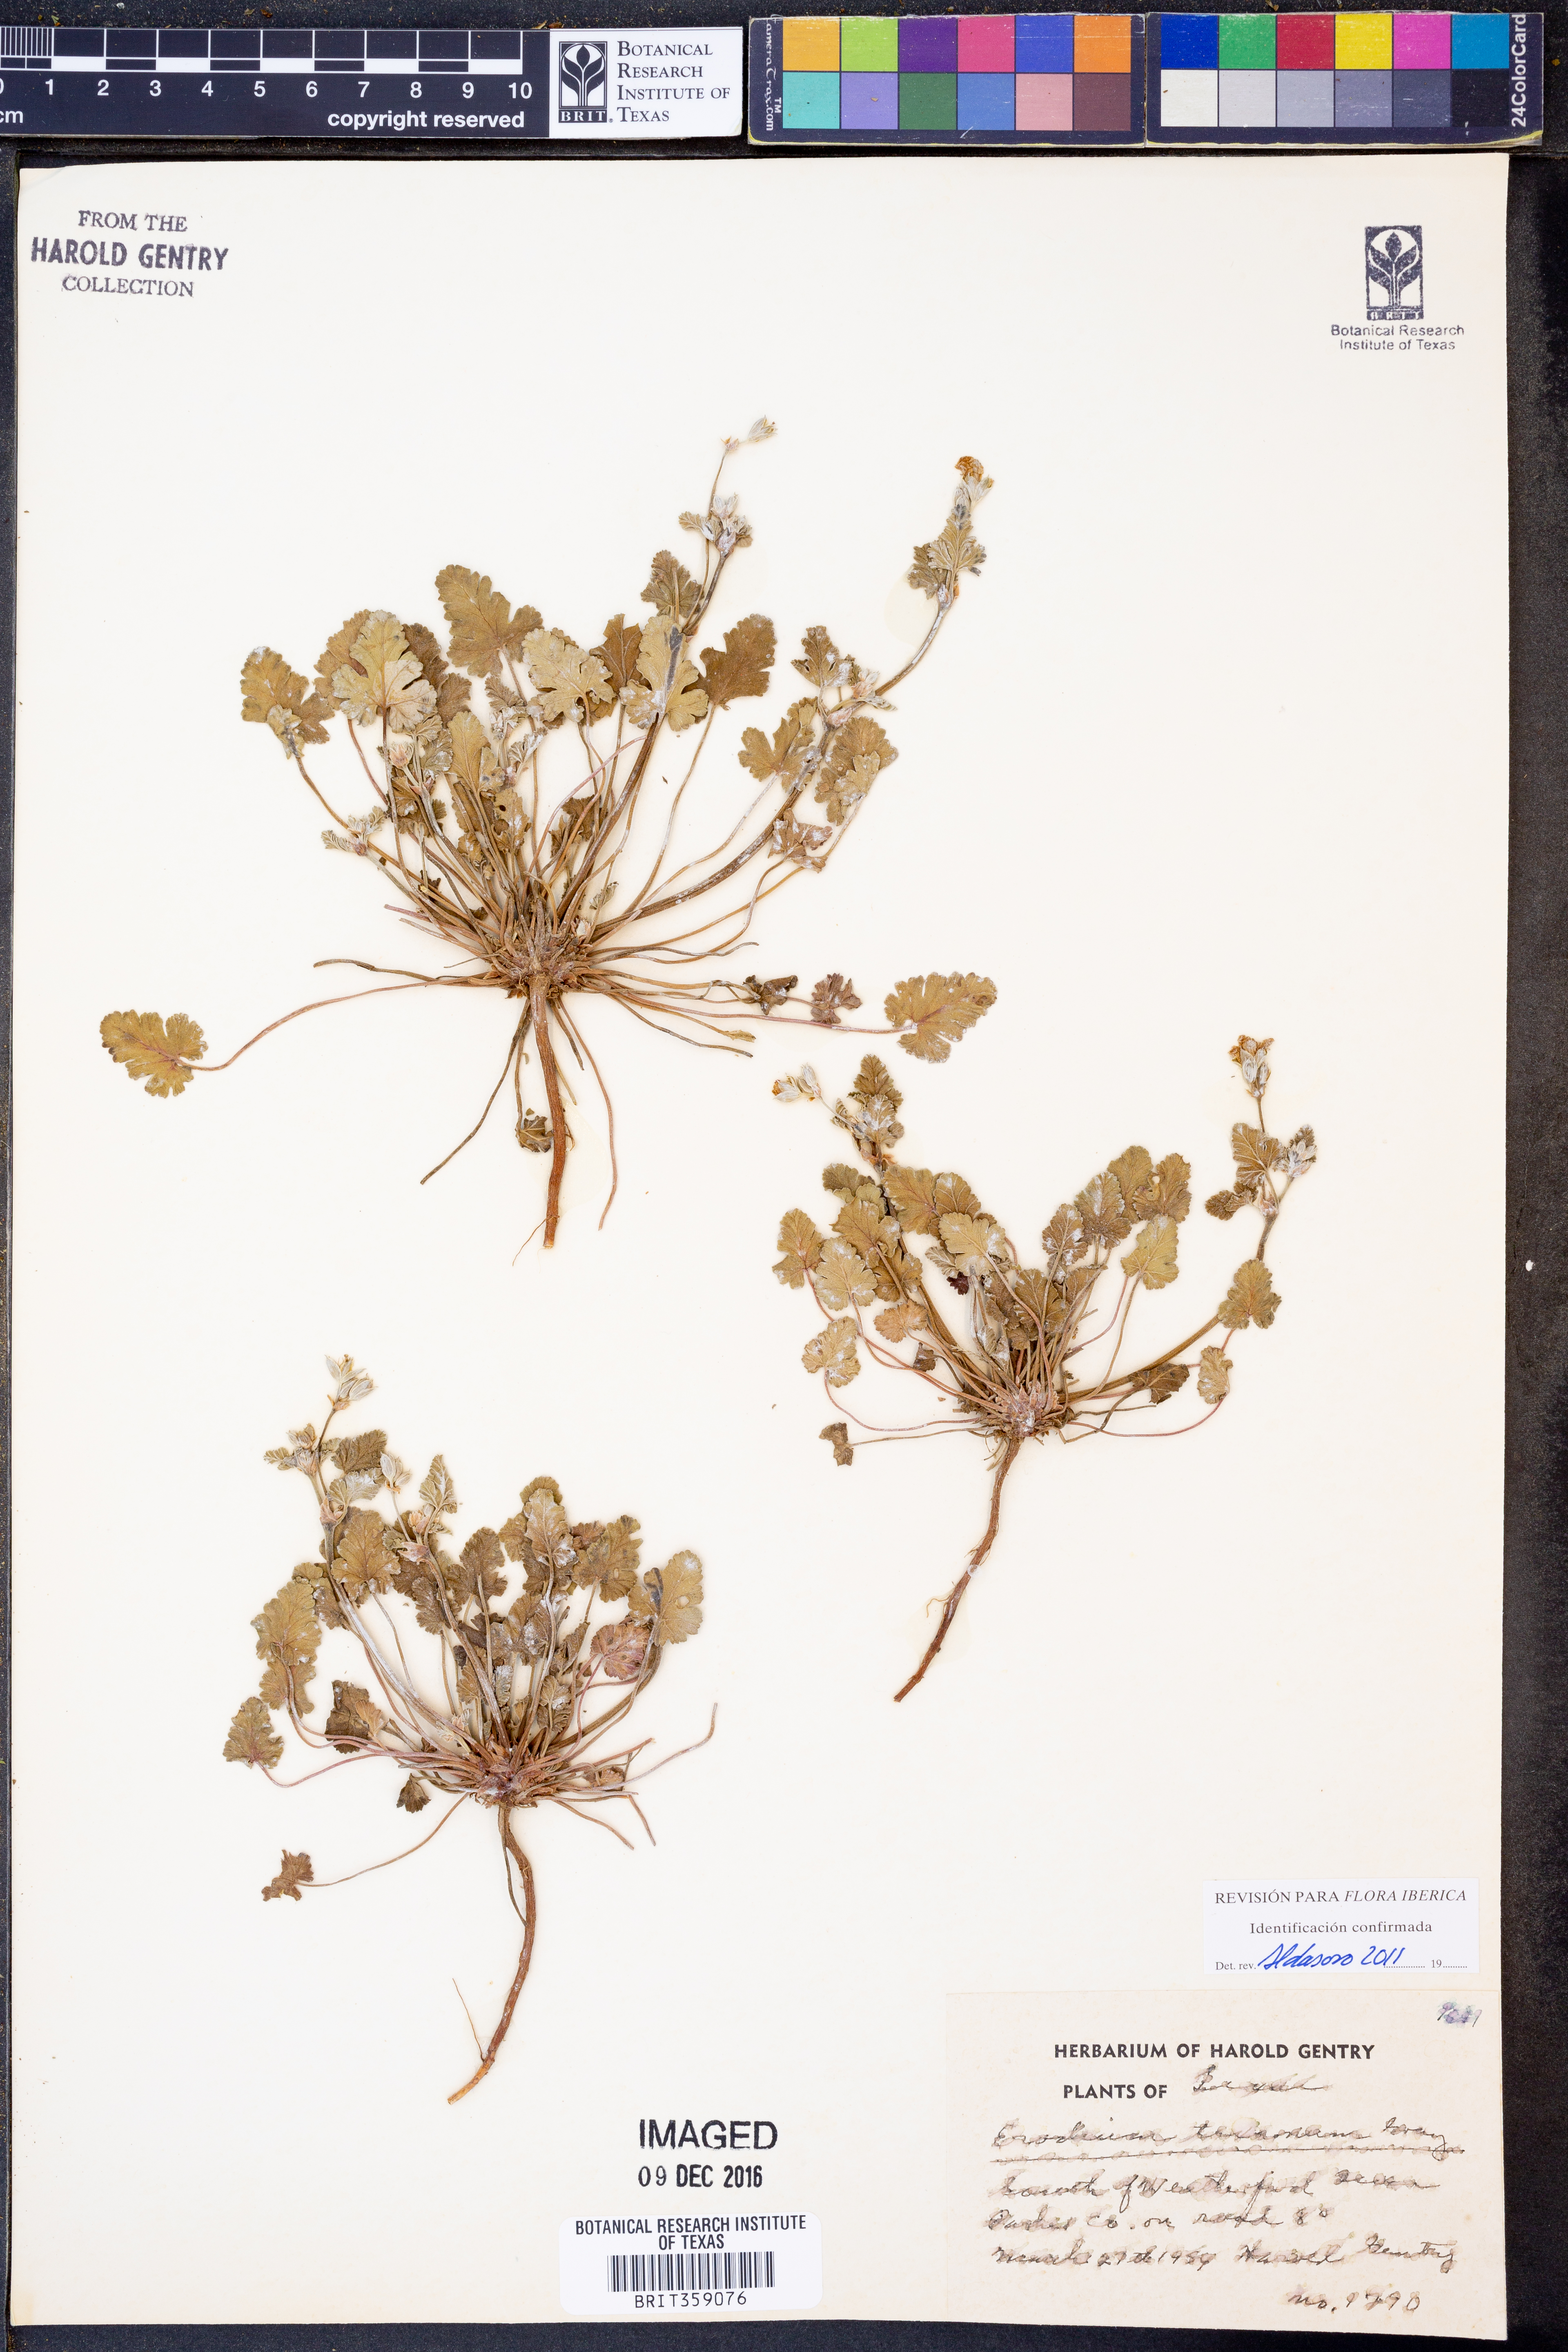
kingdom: Plantae
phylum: Tracheophyta
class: Magnoliopsida
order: Geraniales
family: Geraniaceae
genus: Erodium
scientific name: Erodium texanum
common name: Texas stork's-bill
